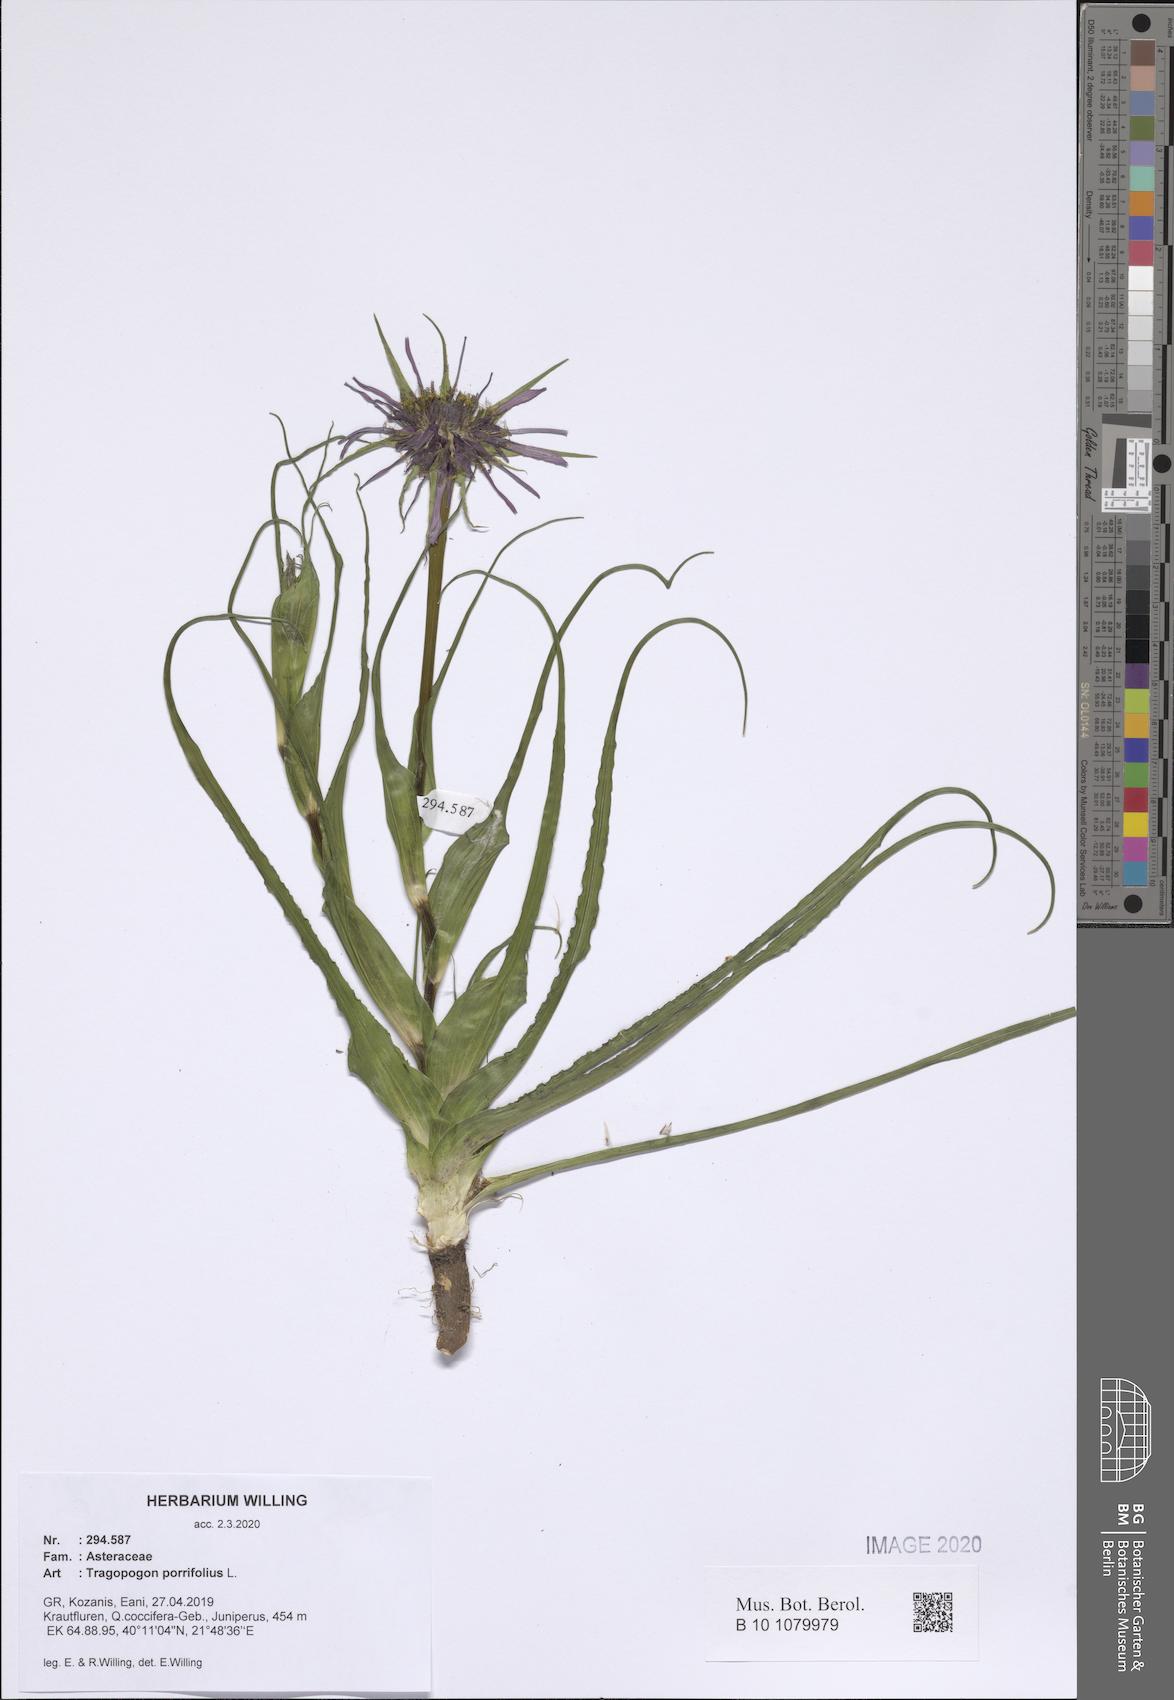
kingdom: Plantae
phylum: Tracheophyta
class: Magnoliopsida
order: Asterales
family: Asteraceae
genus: Tragopogon
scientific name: Tragopogon porrifolius
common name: Salsify
